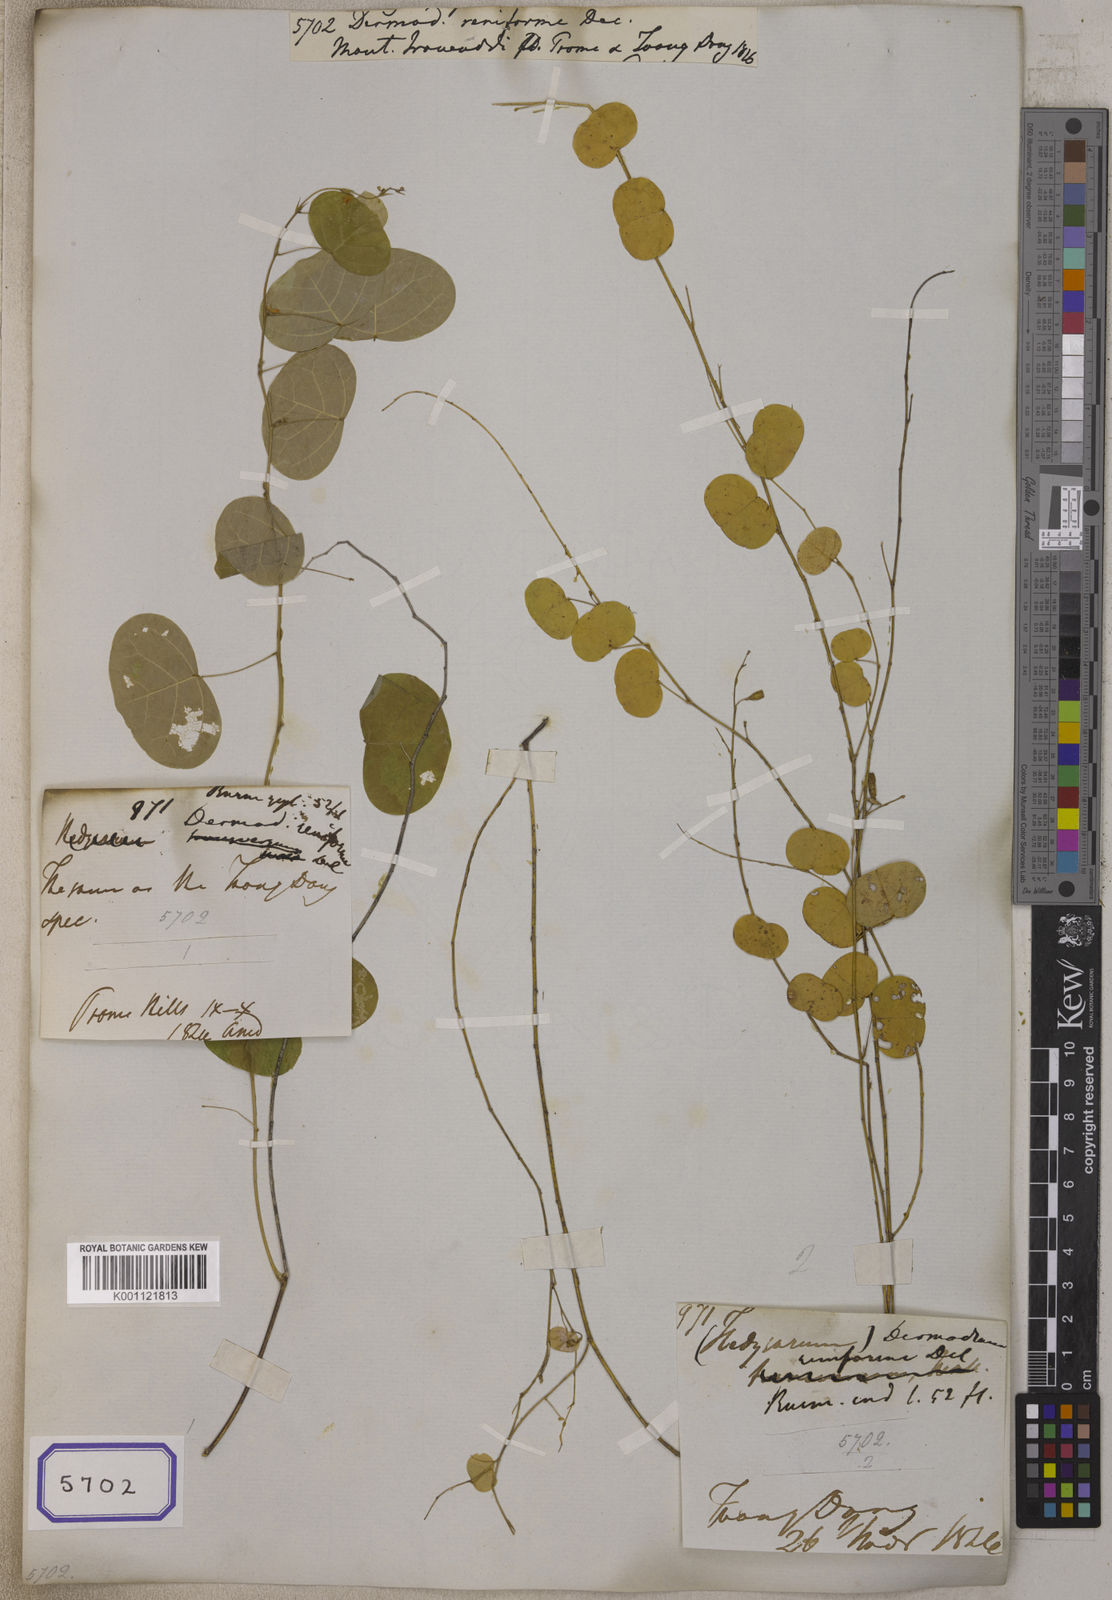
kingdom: Plantae
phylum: Tracheophyta
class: Magnoliopsida
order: Fabales
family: Fabaceae
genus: Huangtcia
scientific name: Huangtcia renifolia
